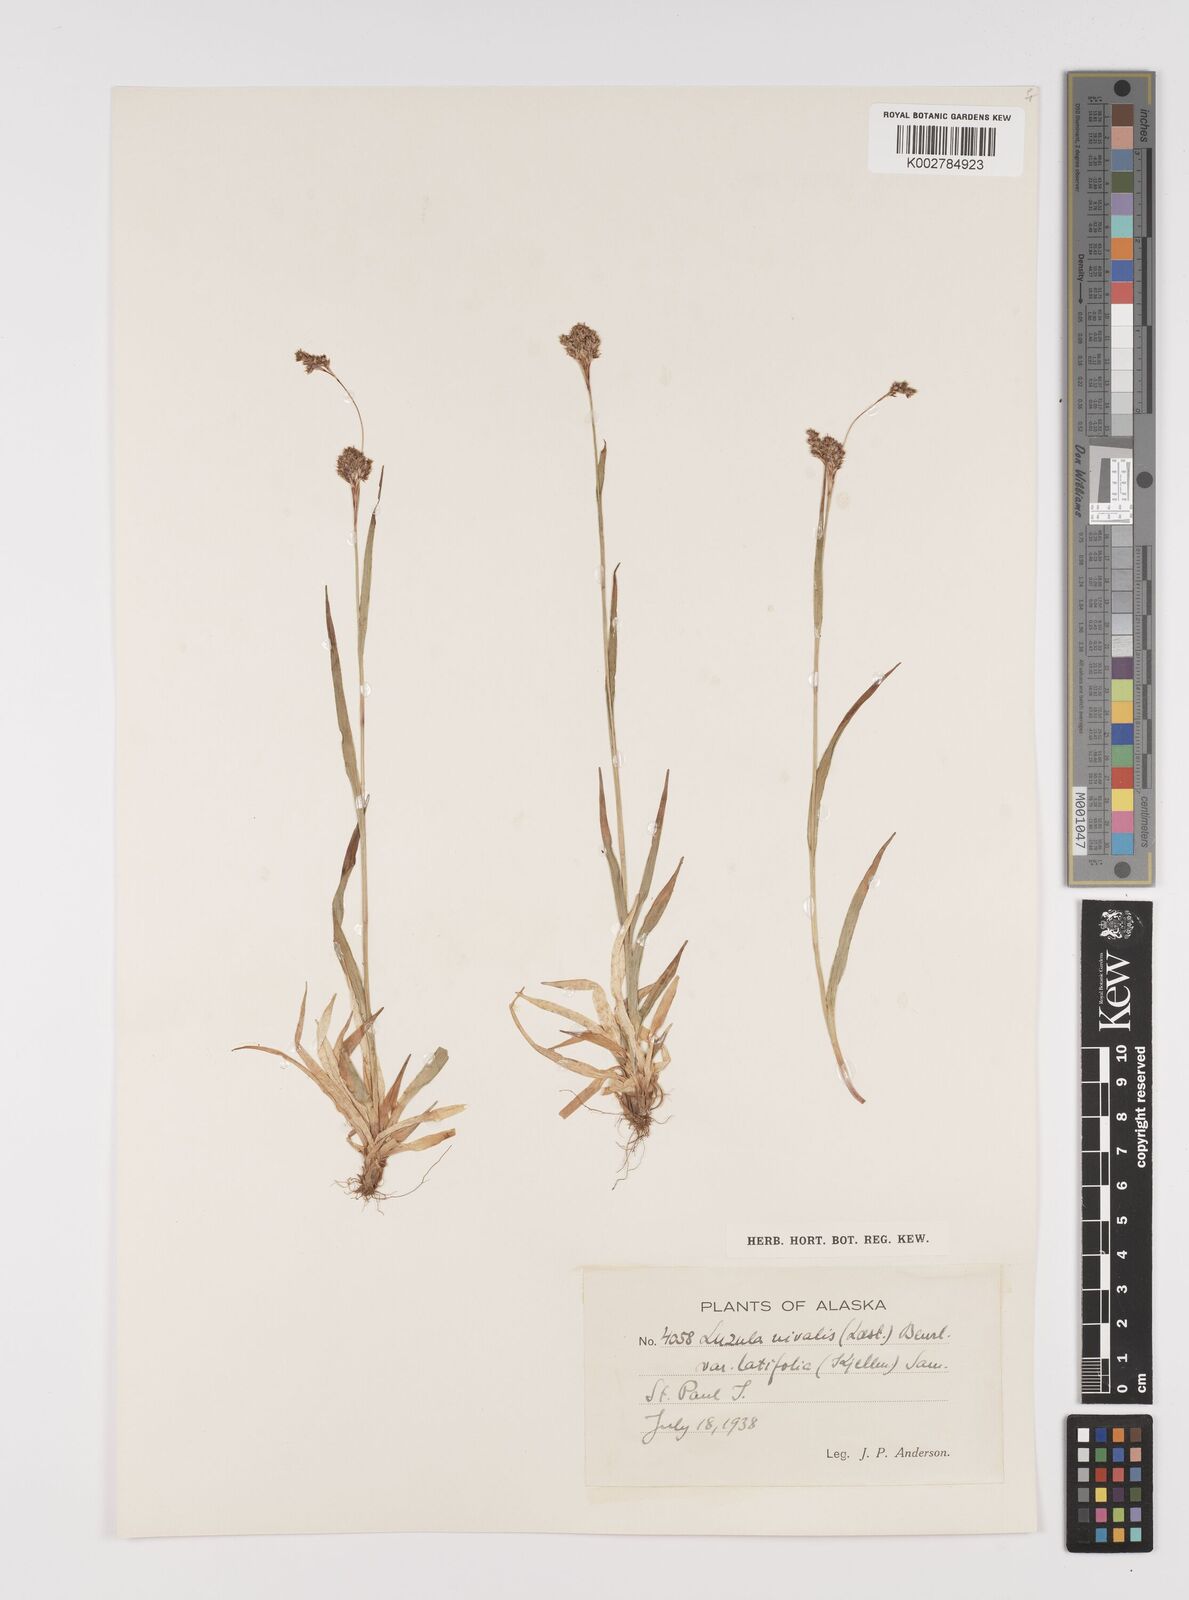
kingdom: Plantae
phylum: Tracheophyta
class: Liliopsida
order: Poales
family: Juncaceae
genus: Luzula
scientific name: Luzula nivalis
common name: Arctic woodrush
